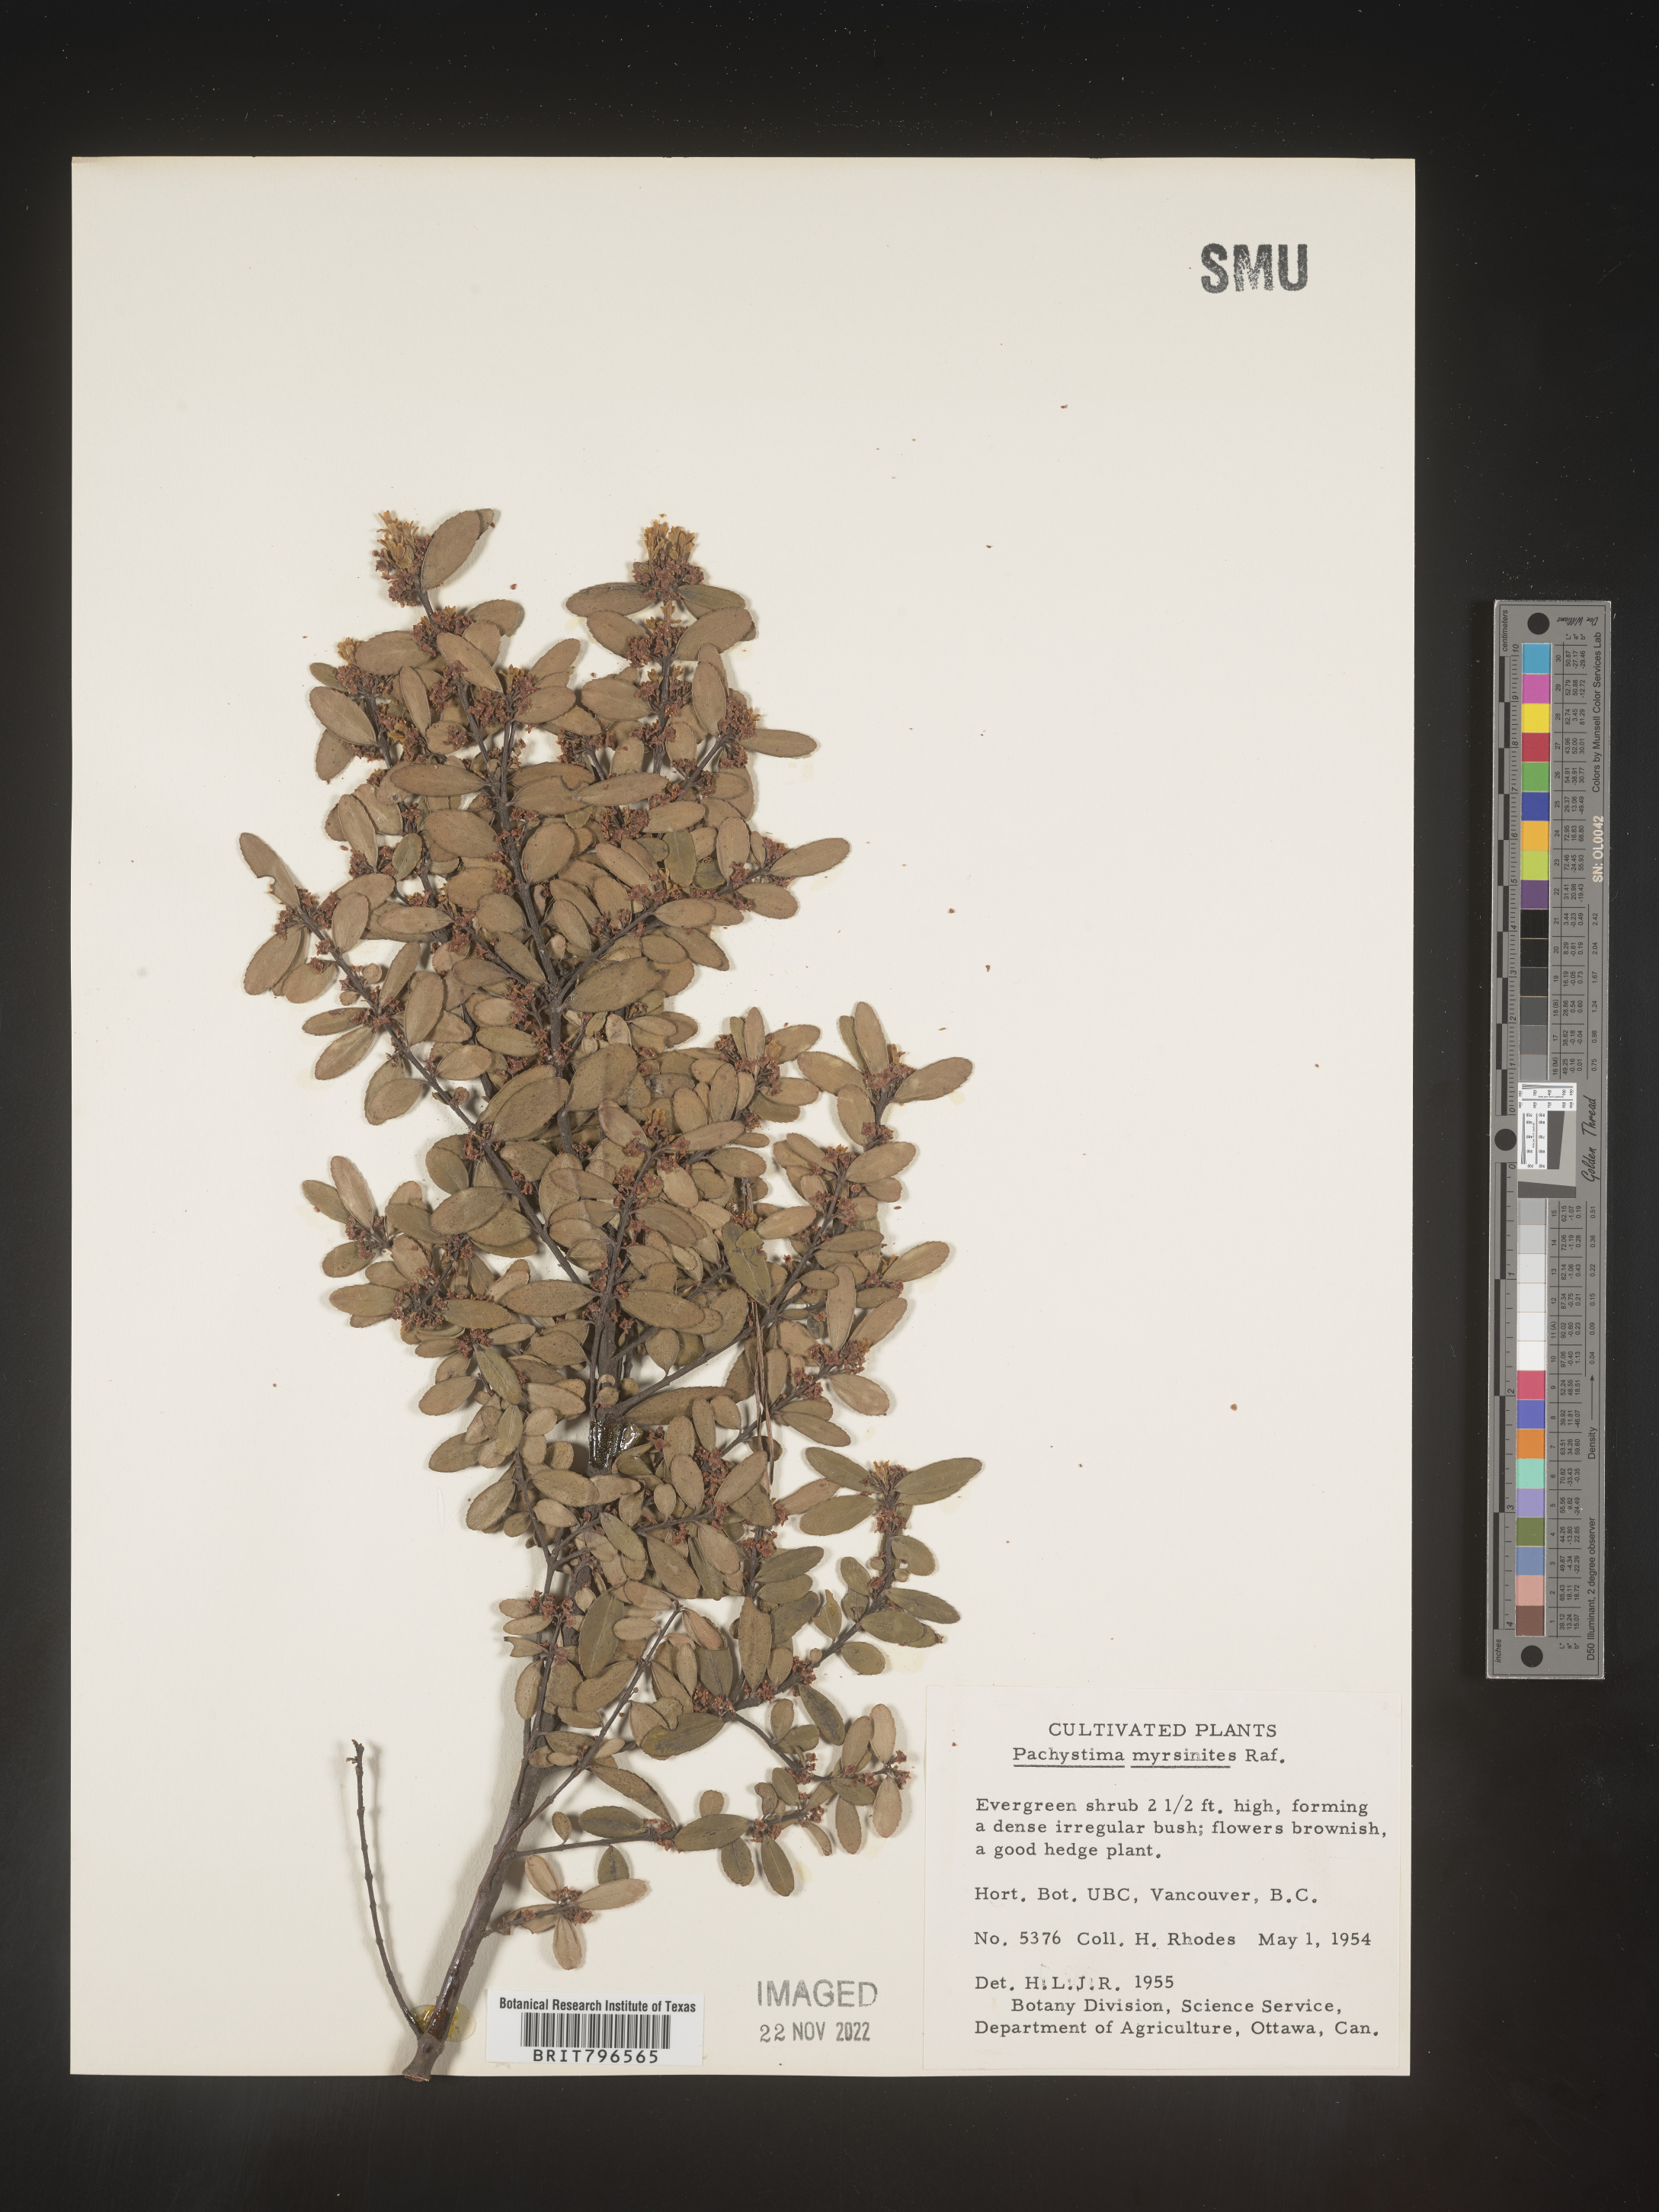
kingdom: Plantae
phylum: Tracheophyta
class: Magnoliopsida
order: Celastrales
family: Celastraceae
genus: Paxistima
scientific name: Paxistima
